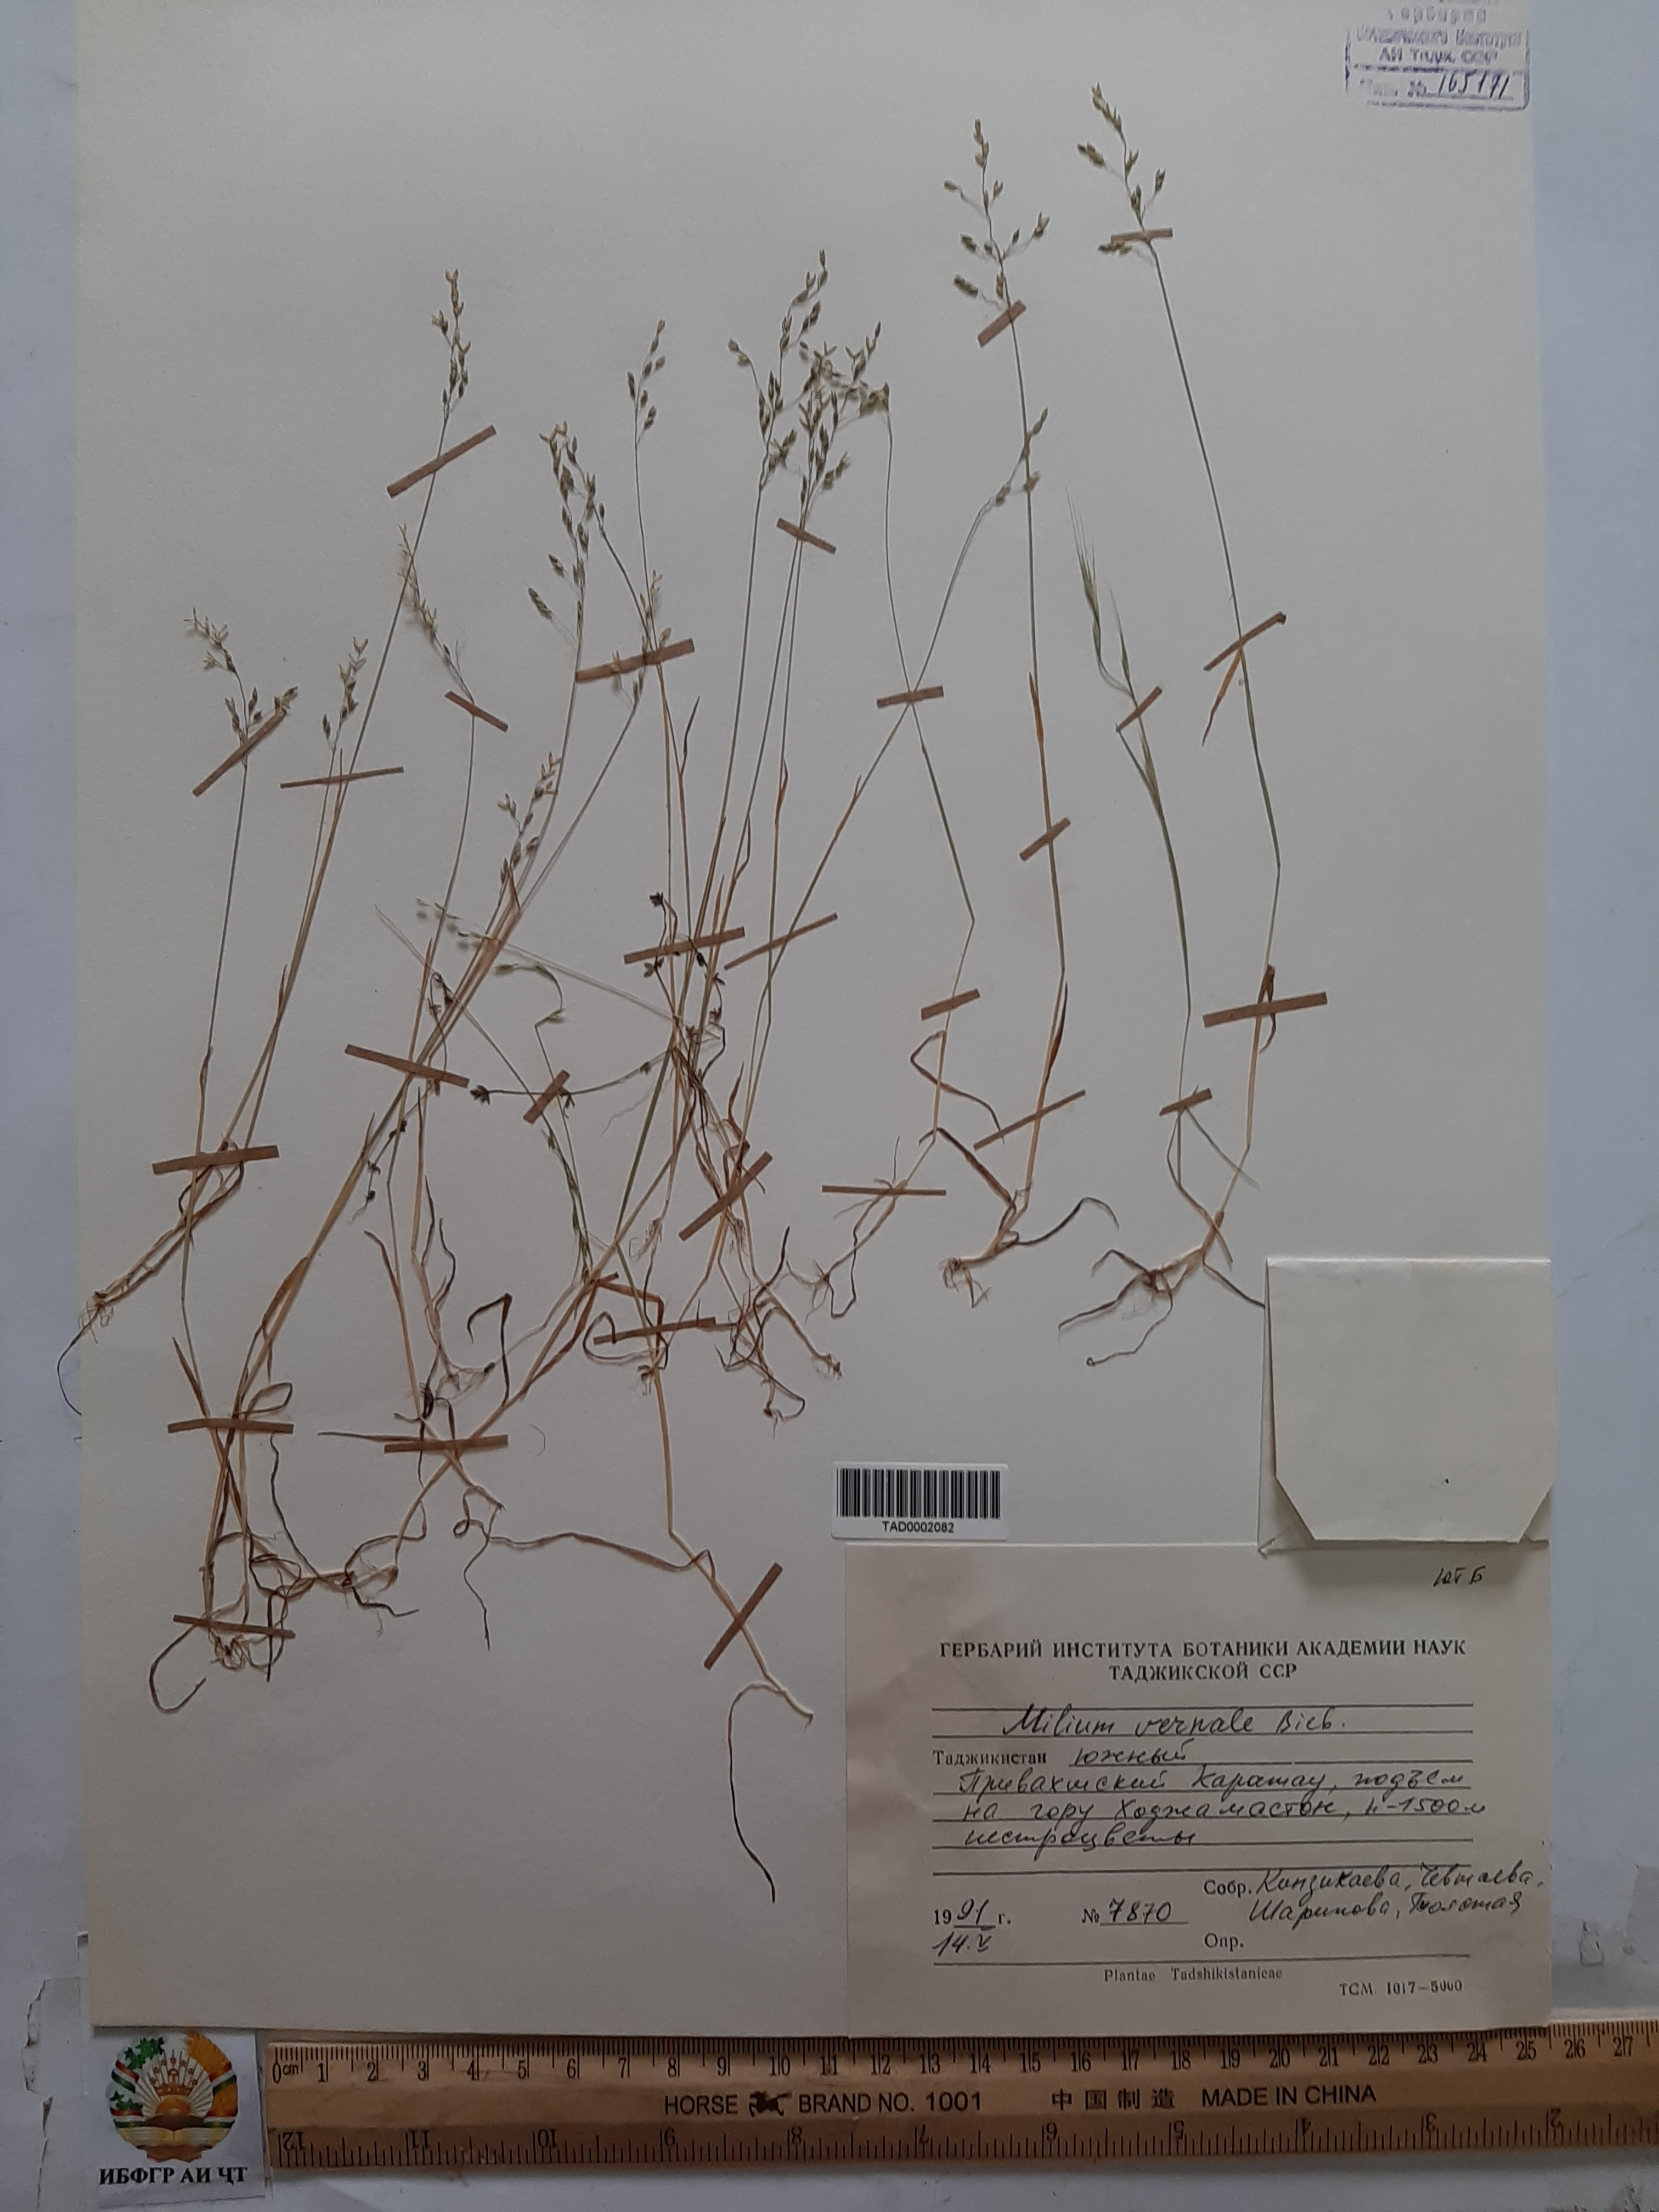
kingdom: Plantae
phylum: Tracheophyta
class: Liliopsida
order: Poales
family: Poaceae
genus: Milium
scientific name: Milium vernale
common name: Early millet
